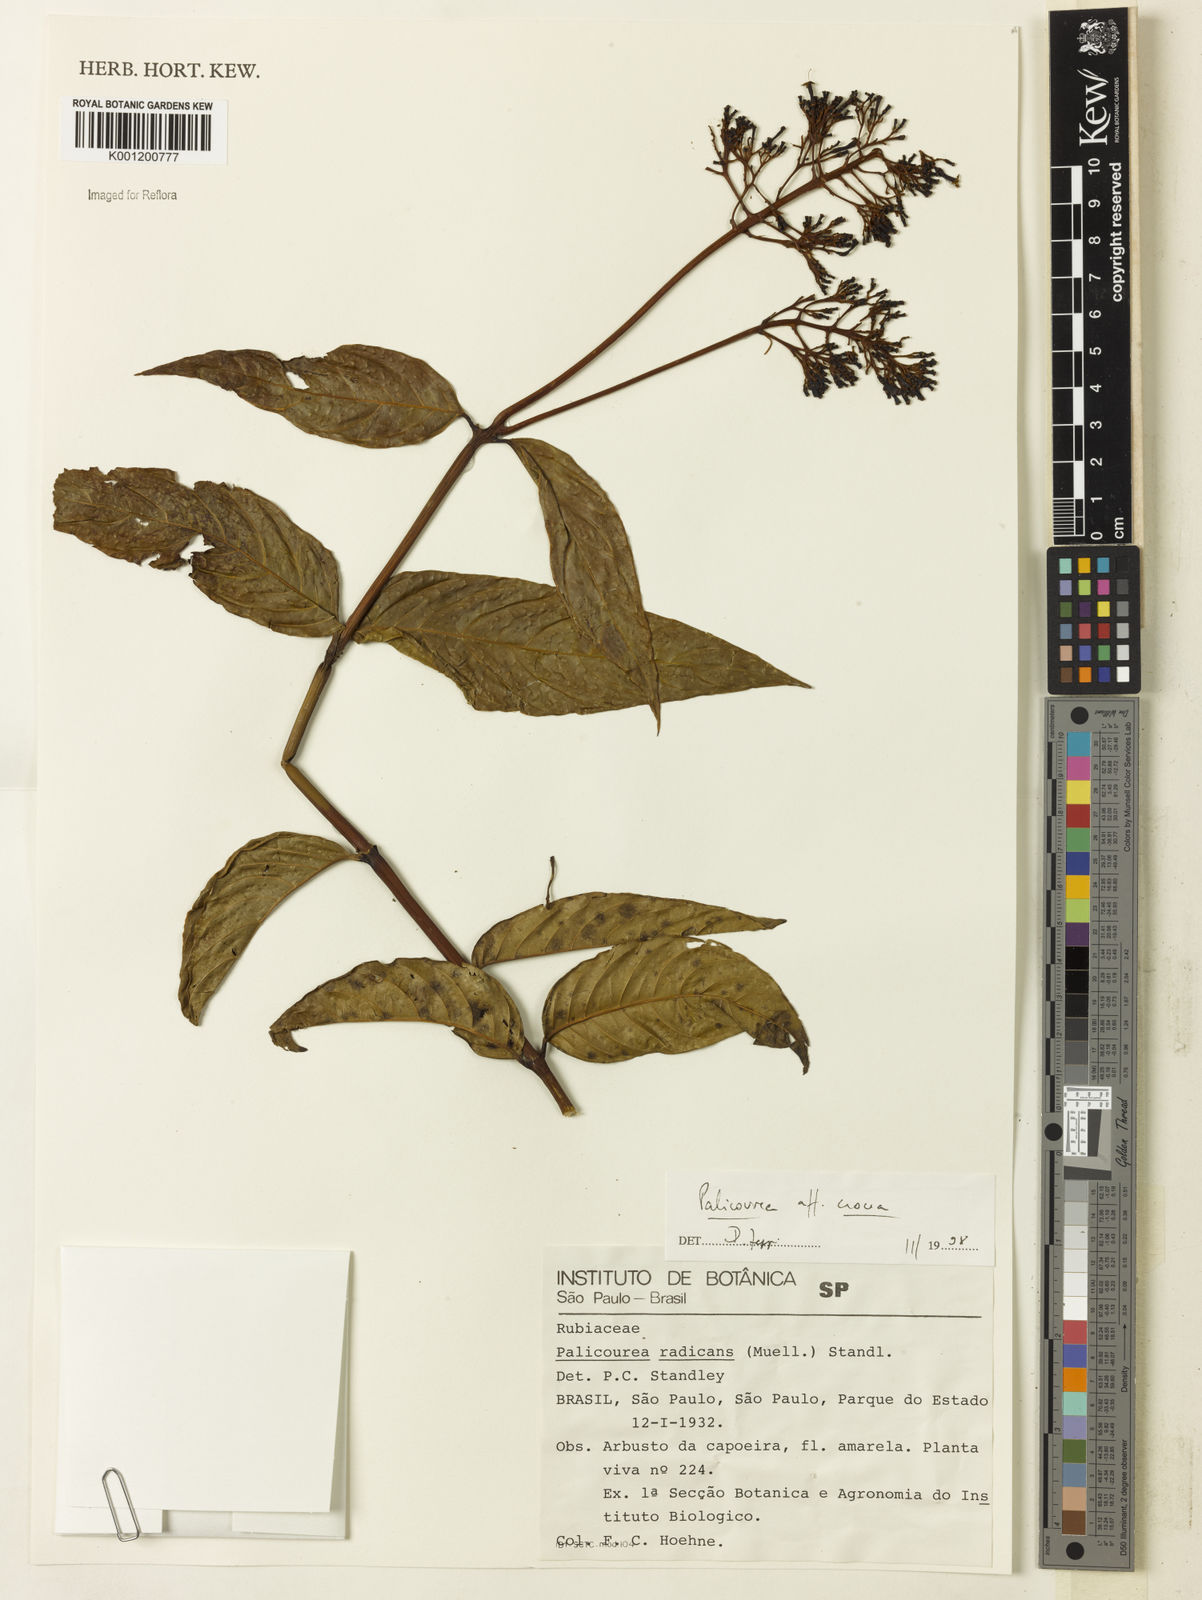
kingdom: Plantae
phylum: Tracheophyta
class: Magnoliopsida
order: Gentianales
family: Rubiaceae
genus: Palicourea
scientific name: Palicourea crocea
